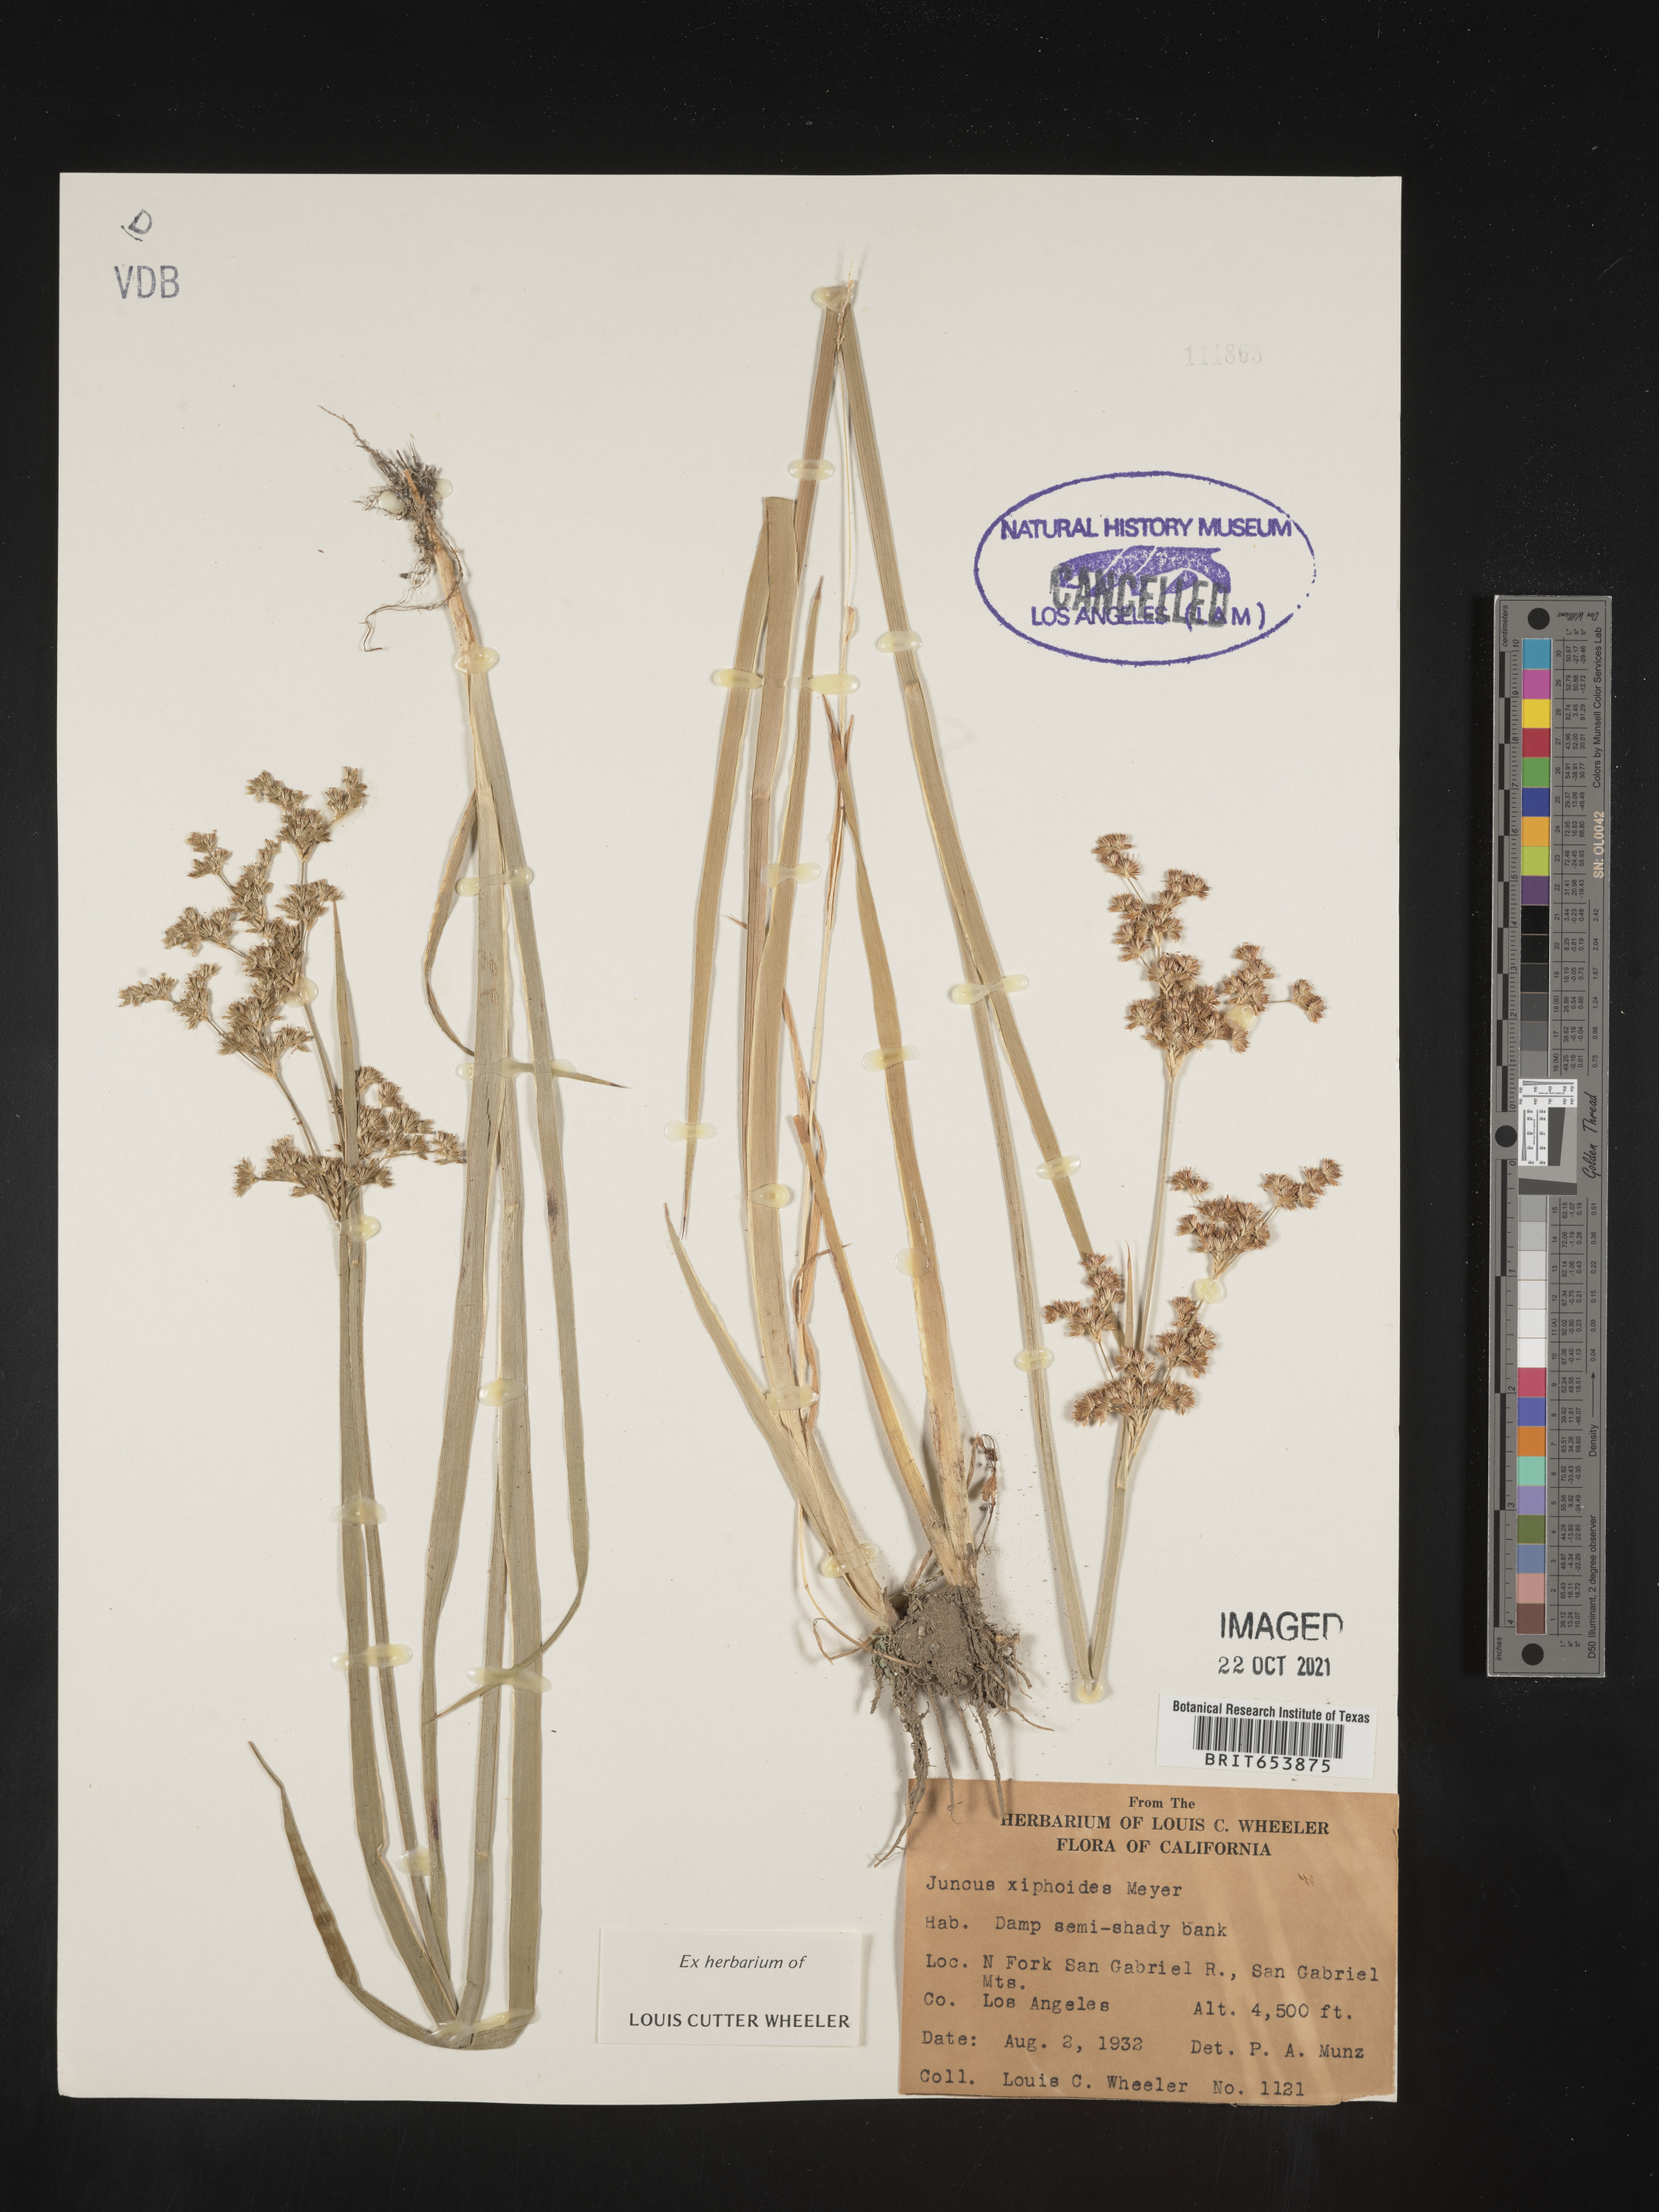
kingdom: Plantae
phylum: Tracheophyta
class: Liliopsida
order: Poales
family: Juncaceae
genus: Juncus
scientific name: Juncus xiphioides
